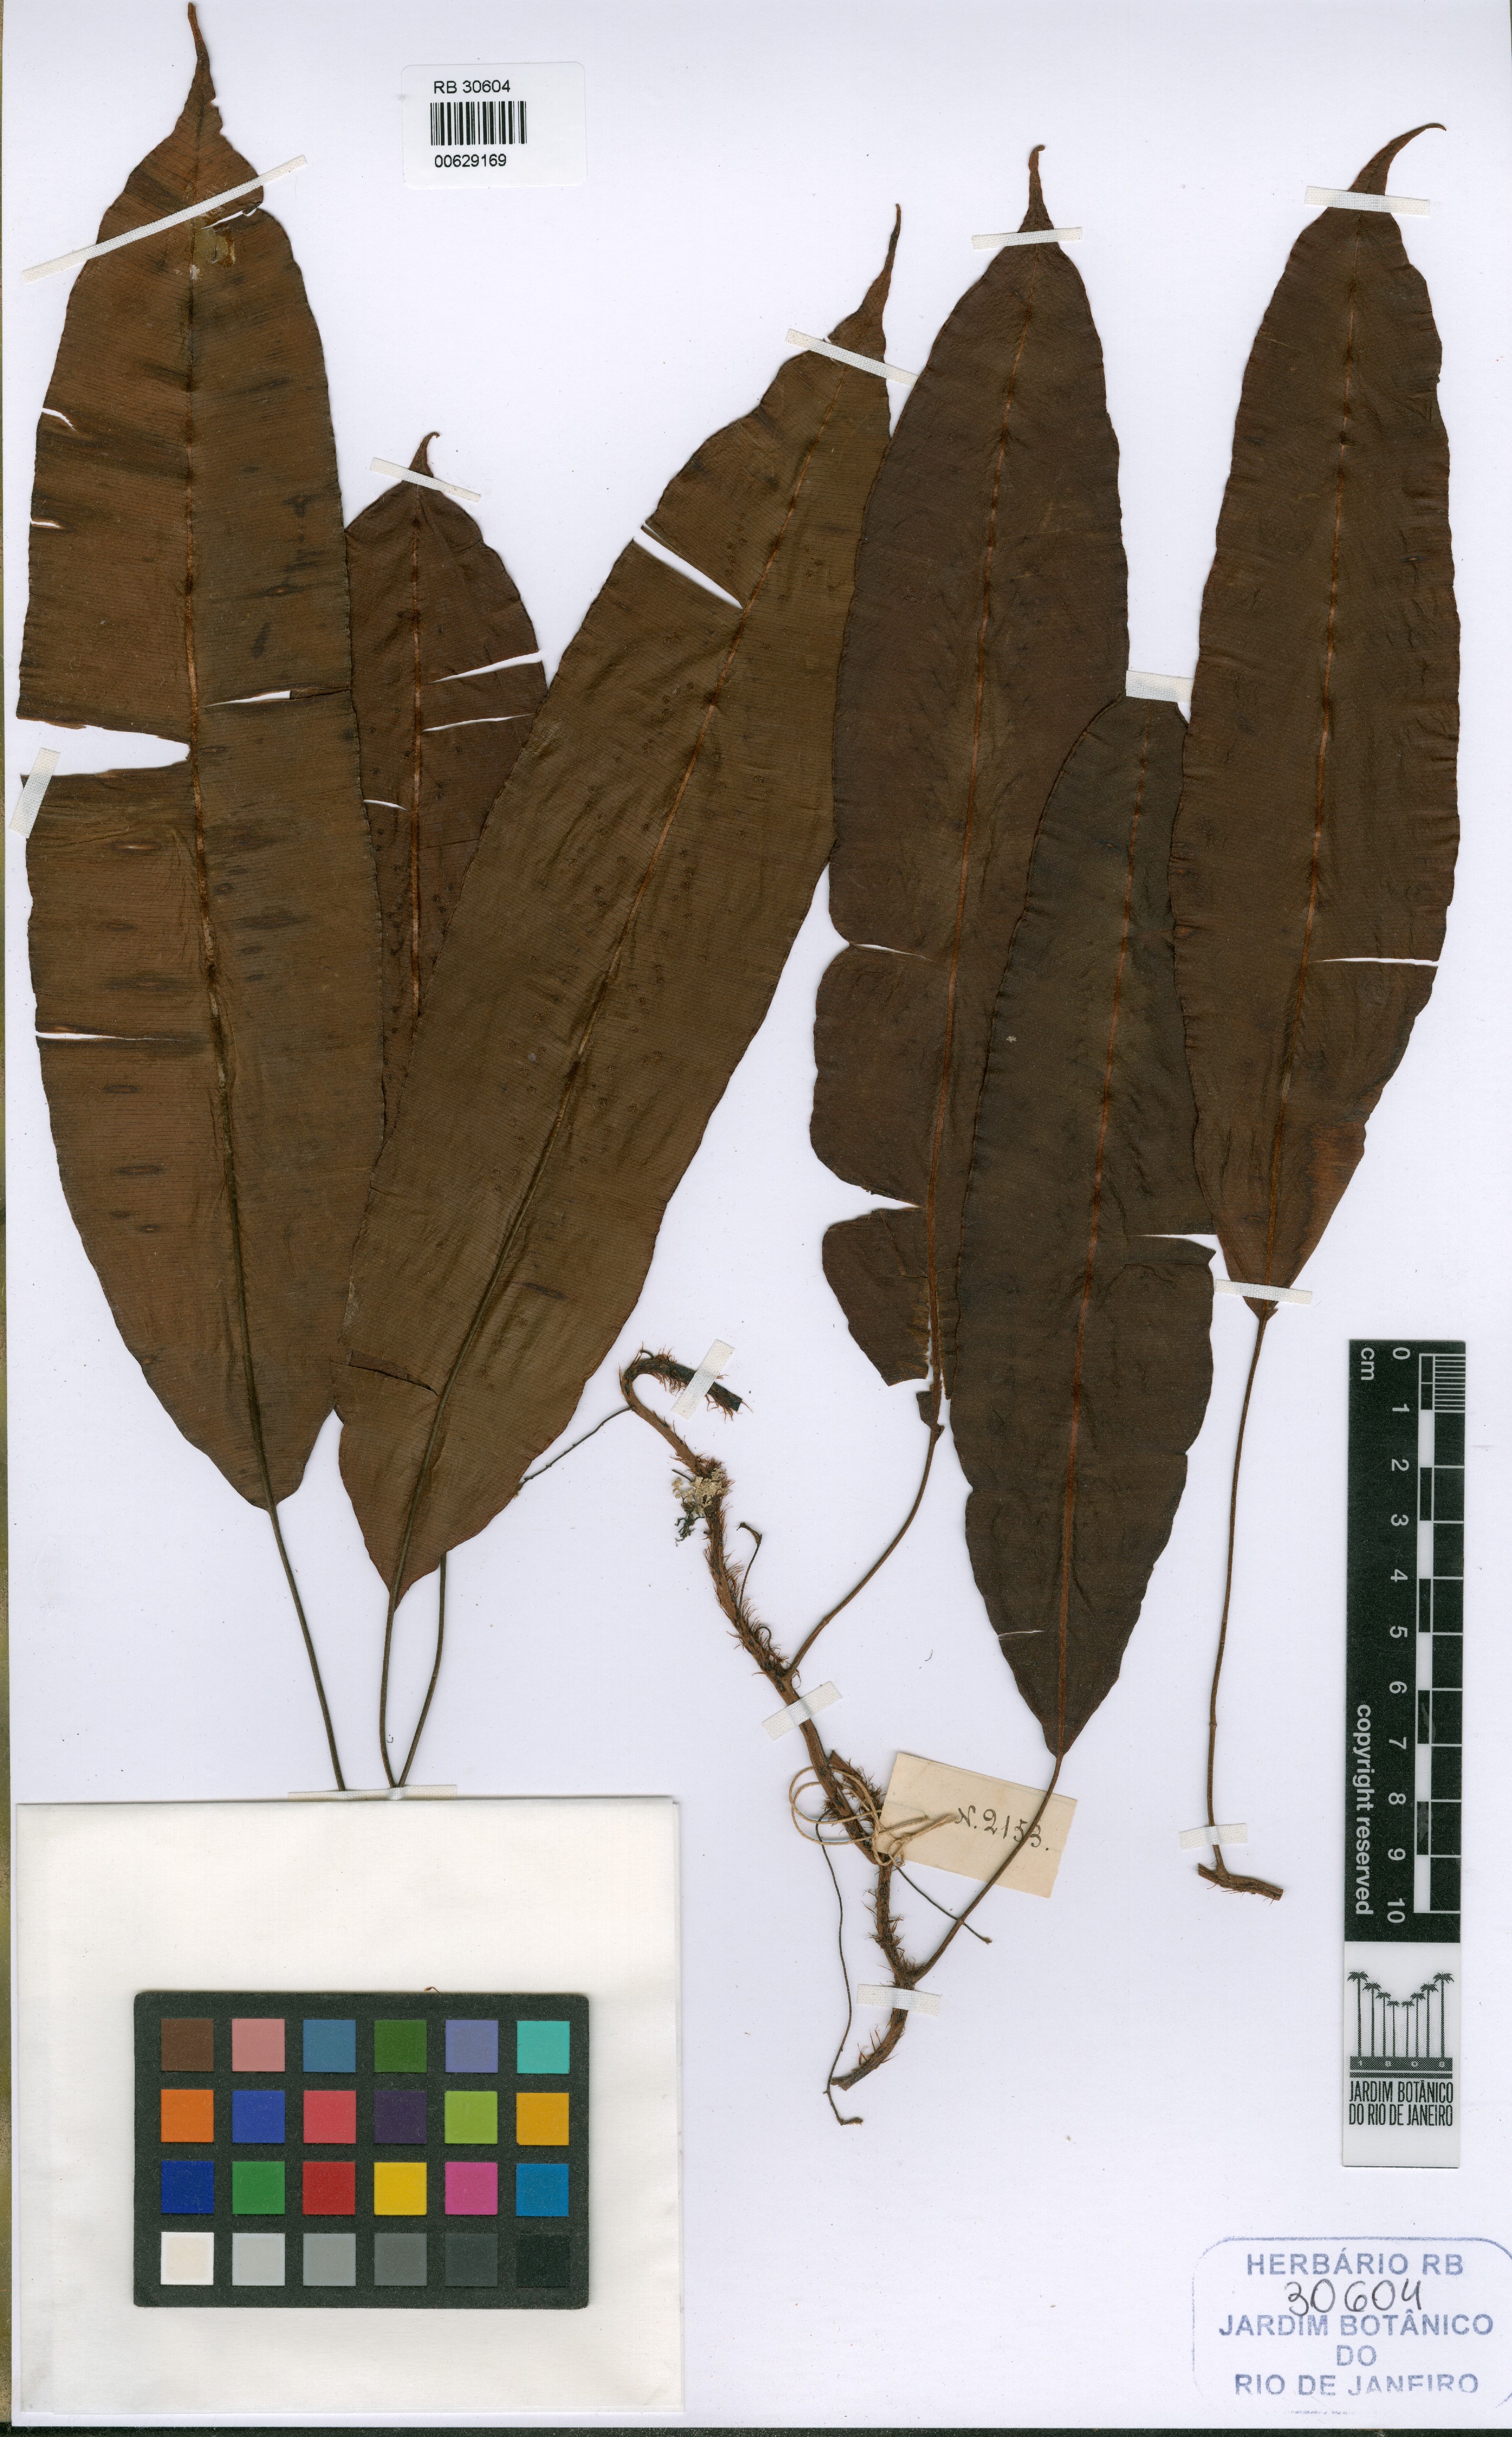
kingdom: Plantae
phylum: Tracheophyta
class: Polypodiopsida
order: Polypodiales
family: Oleandraceae
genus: Oleandra
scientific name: Oleandra articulata
